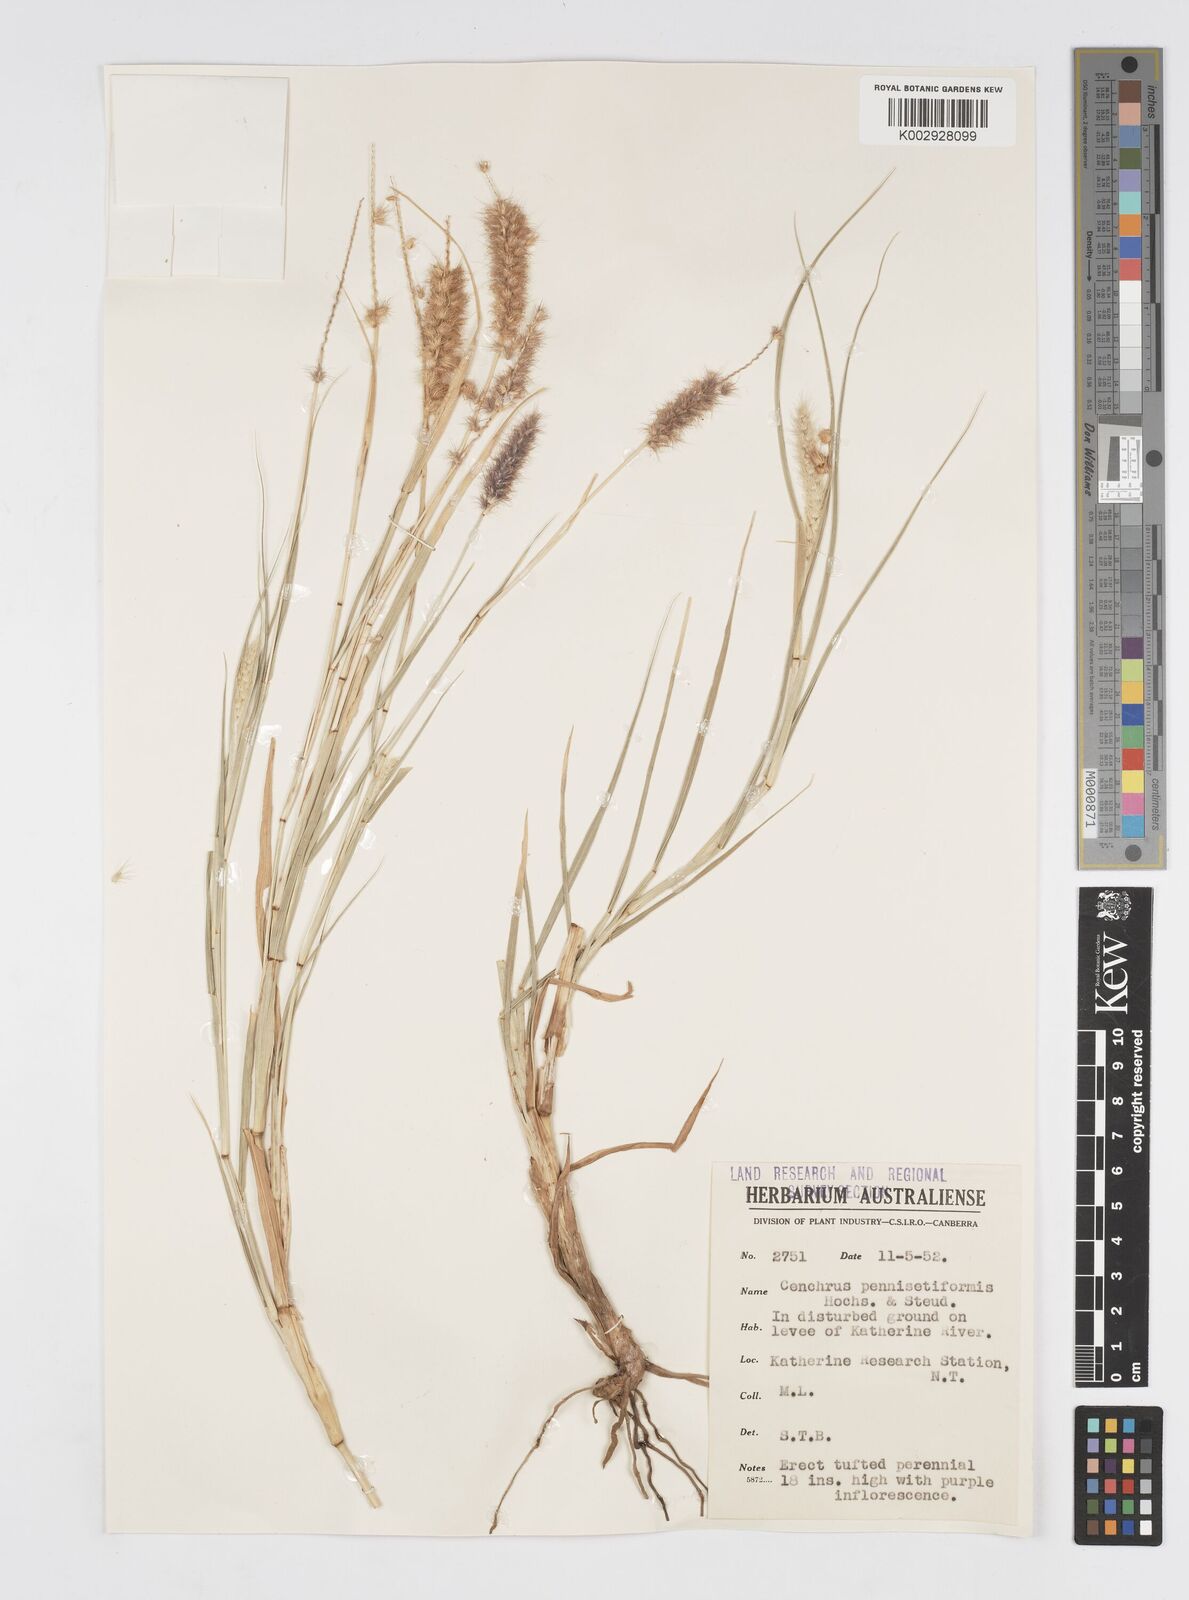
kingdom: Plantae
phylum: Tracheophyta
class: Liliopsida
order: Poales
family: Poaceae
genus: Cenchrus
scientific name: Cenchrus ciliaris
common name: Buffelgrass
